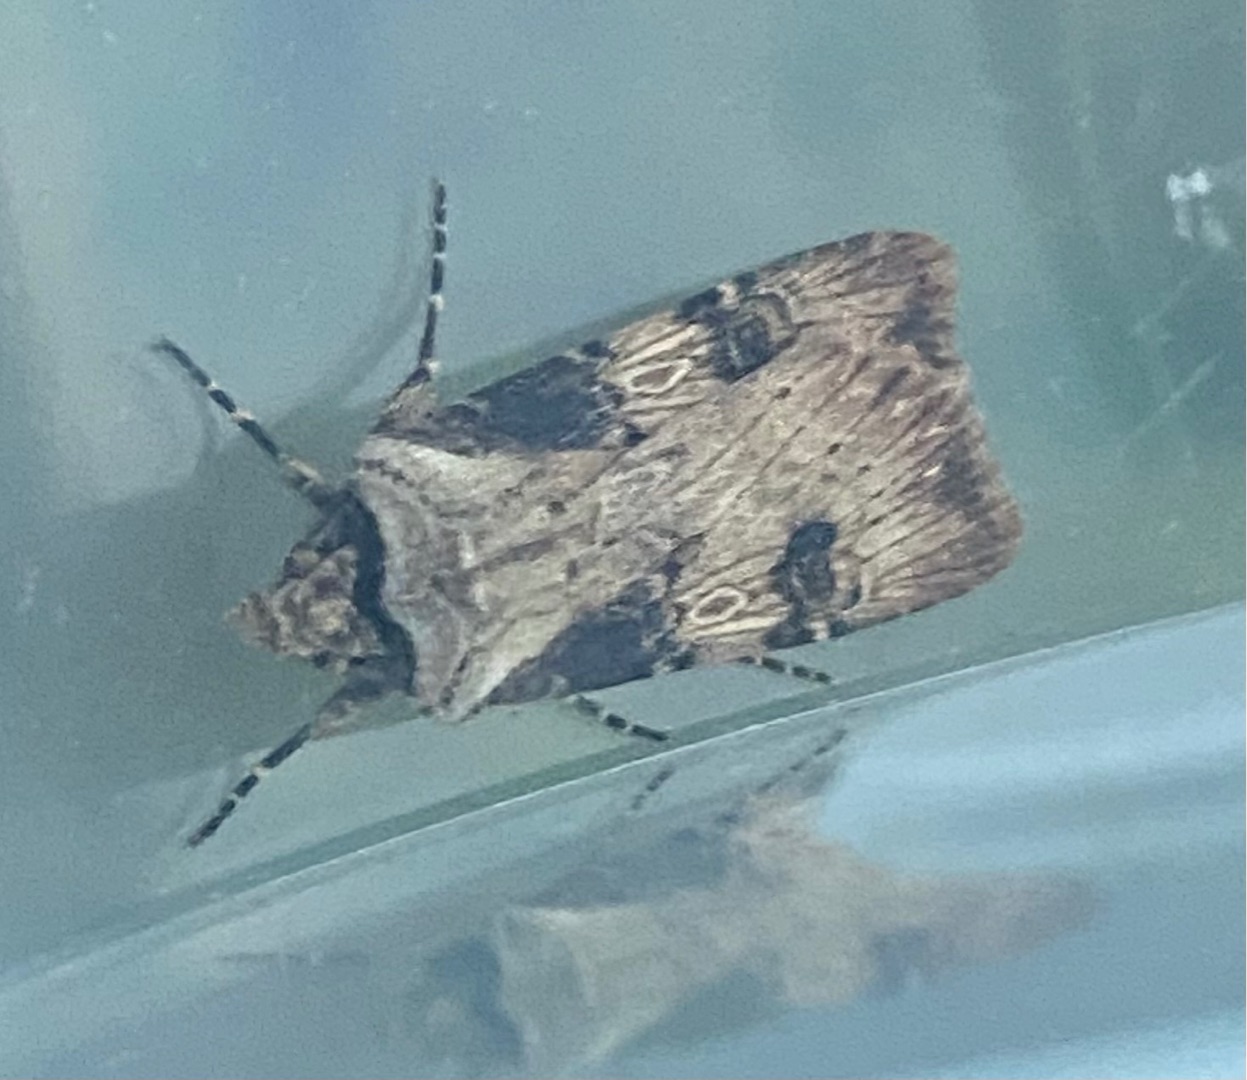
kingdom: Animalia
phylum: Arthropoda
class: Insecta
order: Lepidoptera
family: Noctuidae
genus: Agrotis
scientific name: Agrotis puta
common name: Frønnet landmand
